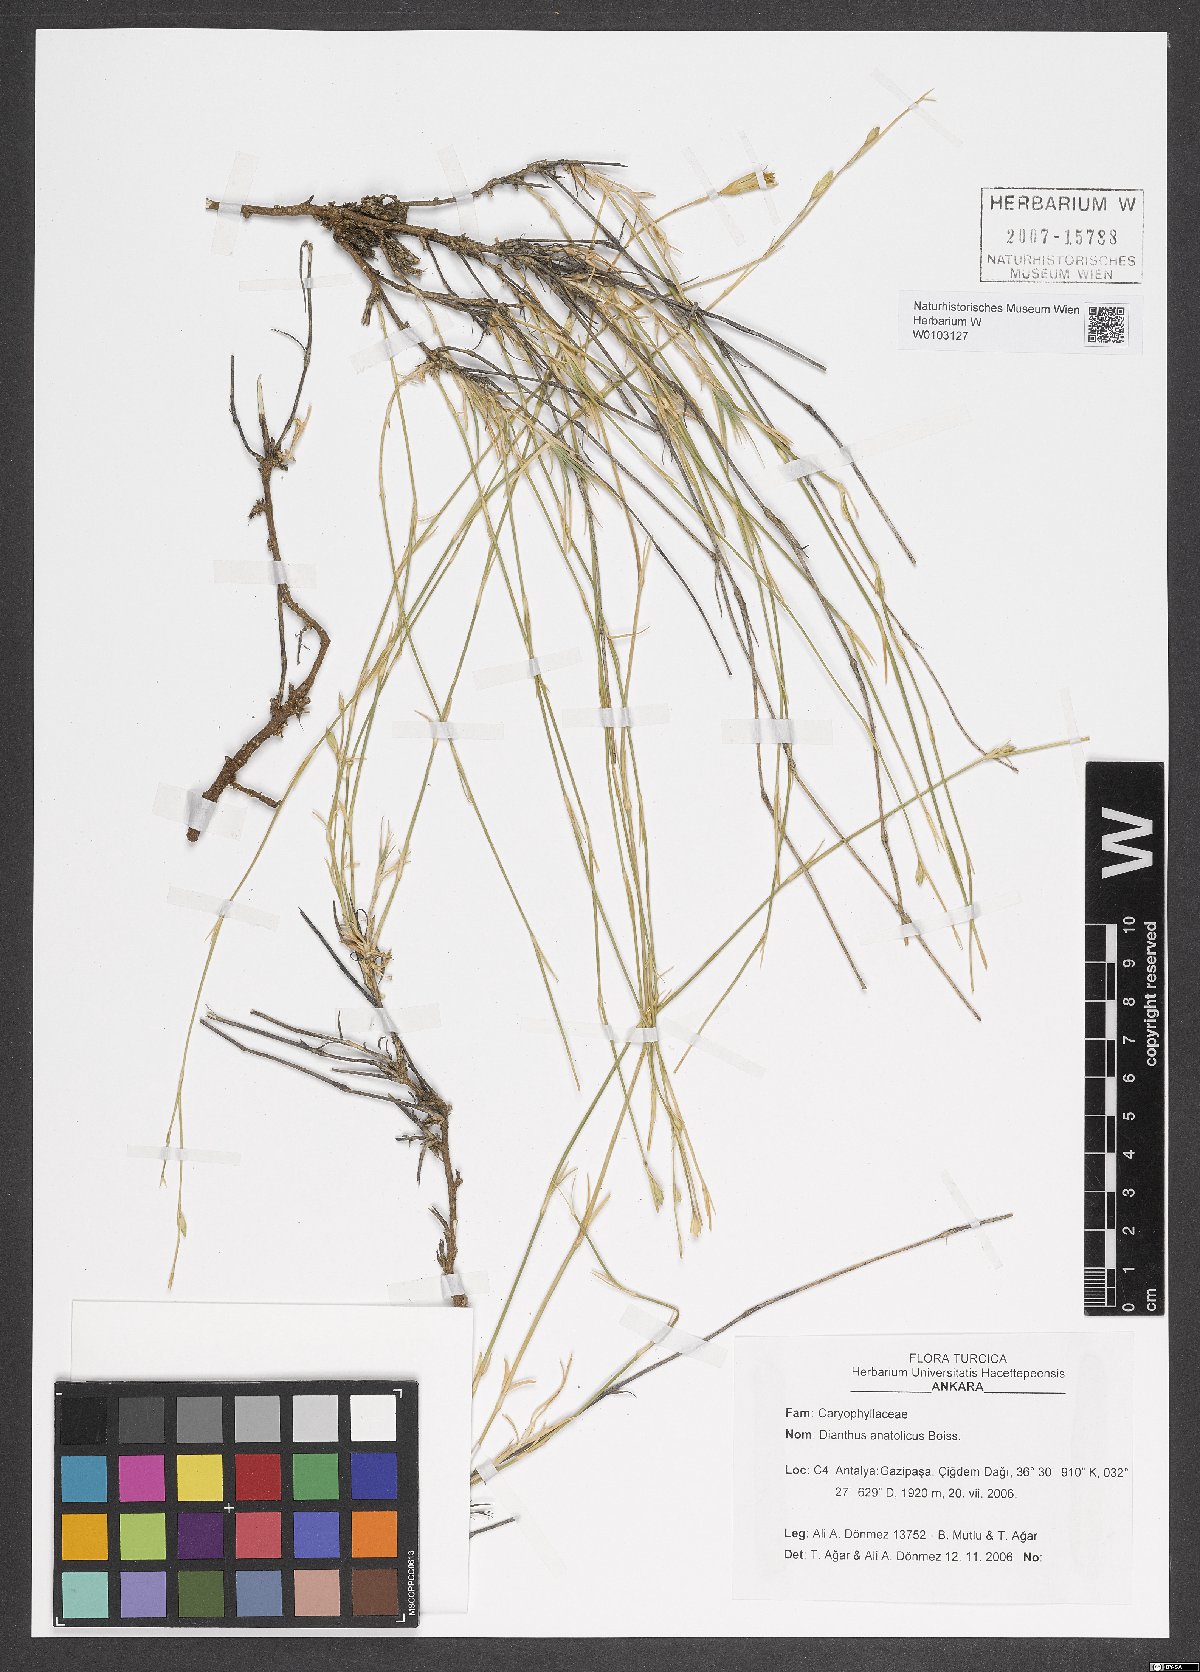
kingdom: Plantae
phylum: Tracheophyta
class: Magnoliopsida
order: Caryophyllales
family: Caryophyllaceae
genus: Dianthus
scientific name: Dianthus anatolicus
